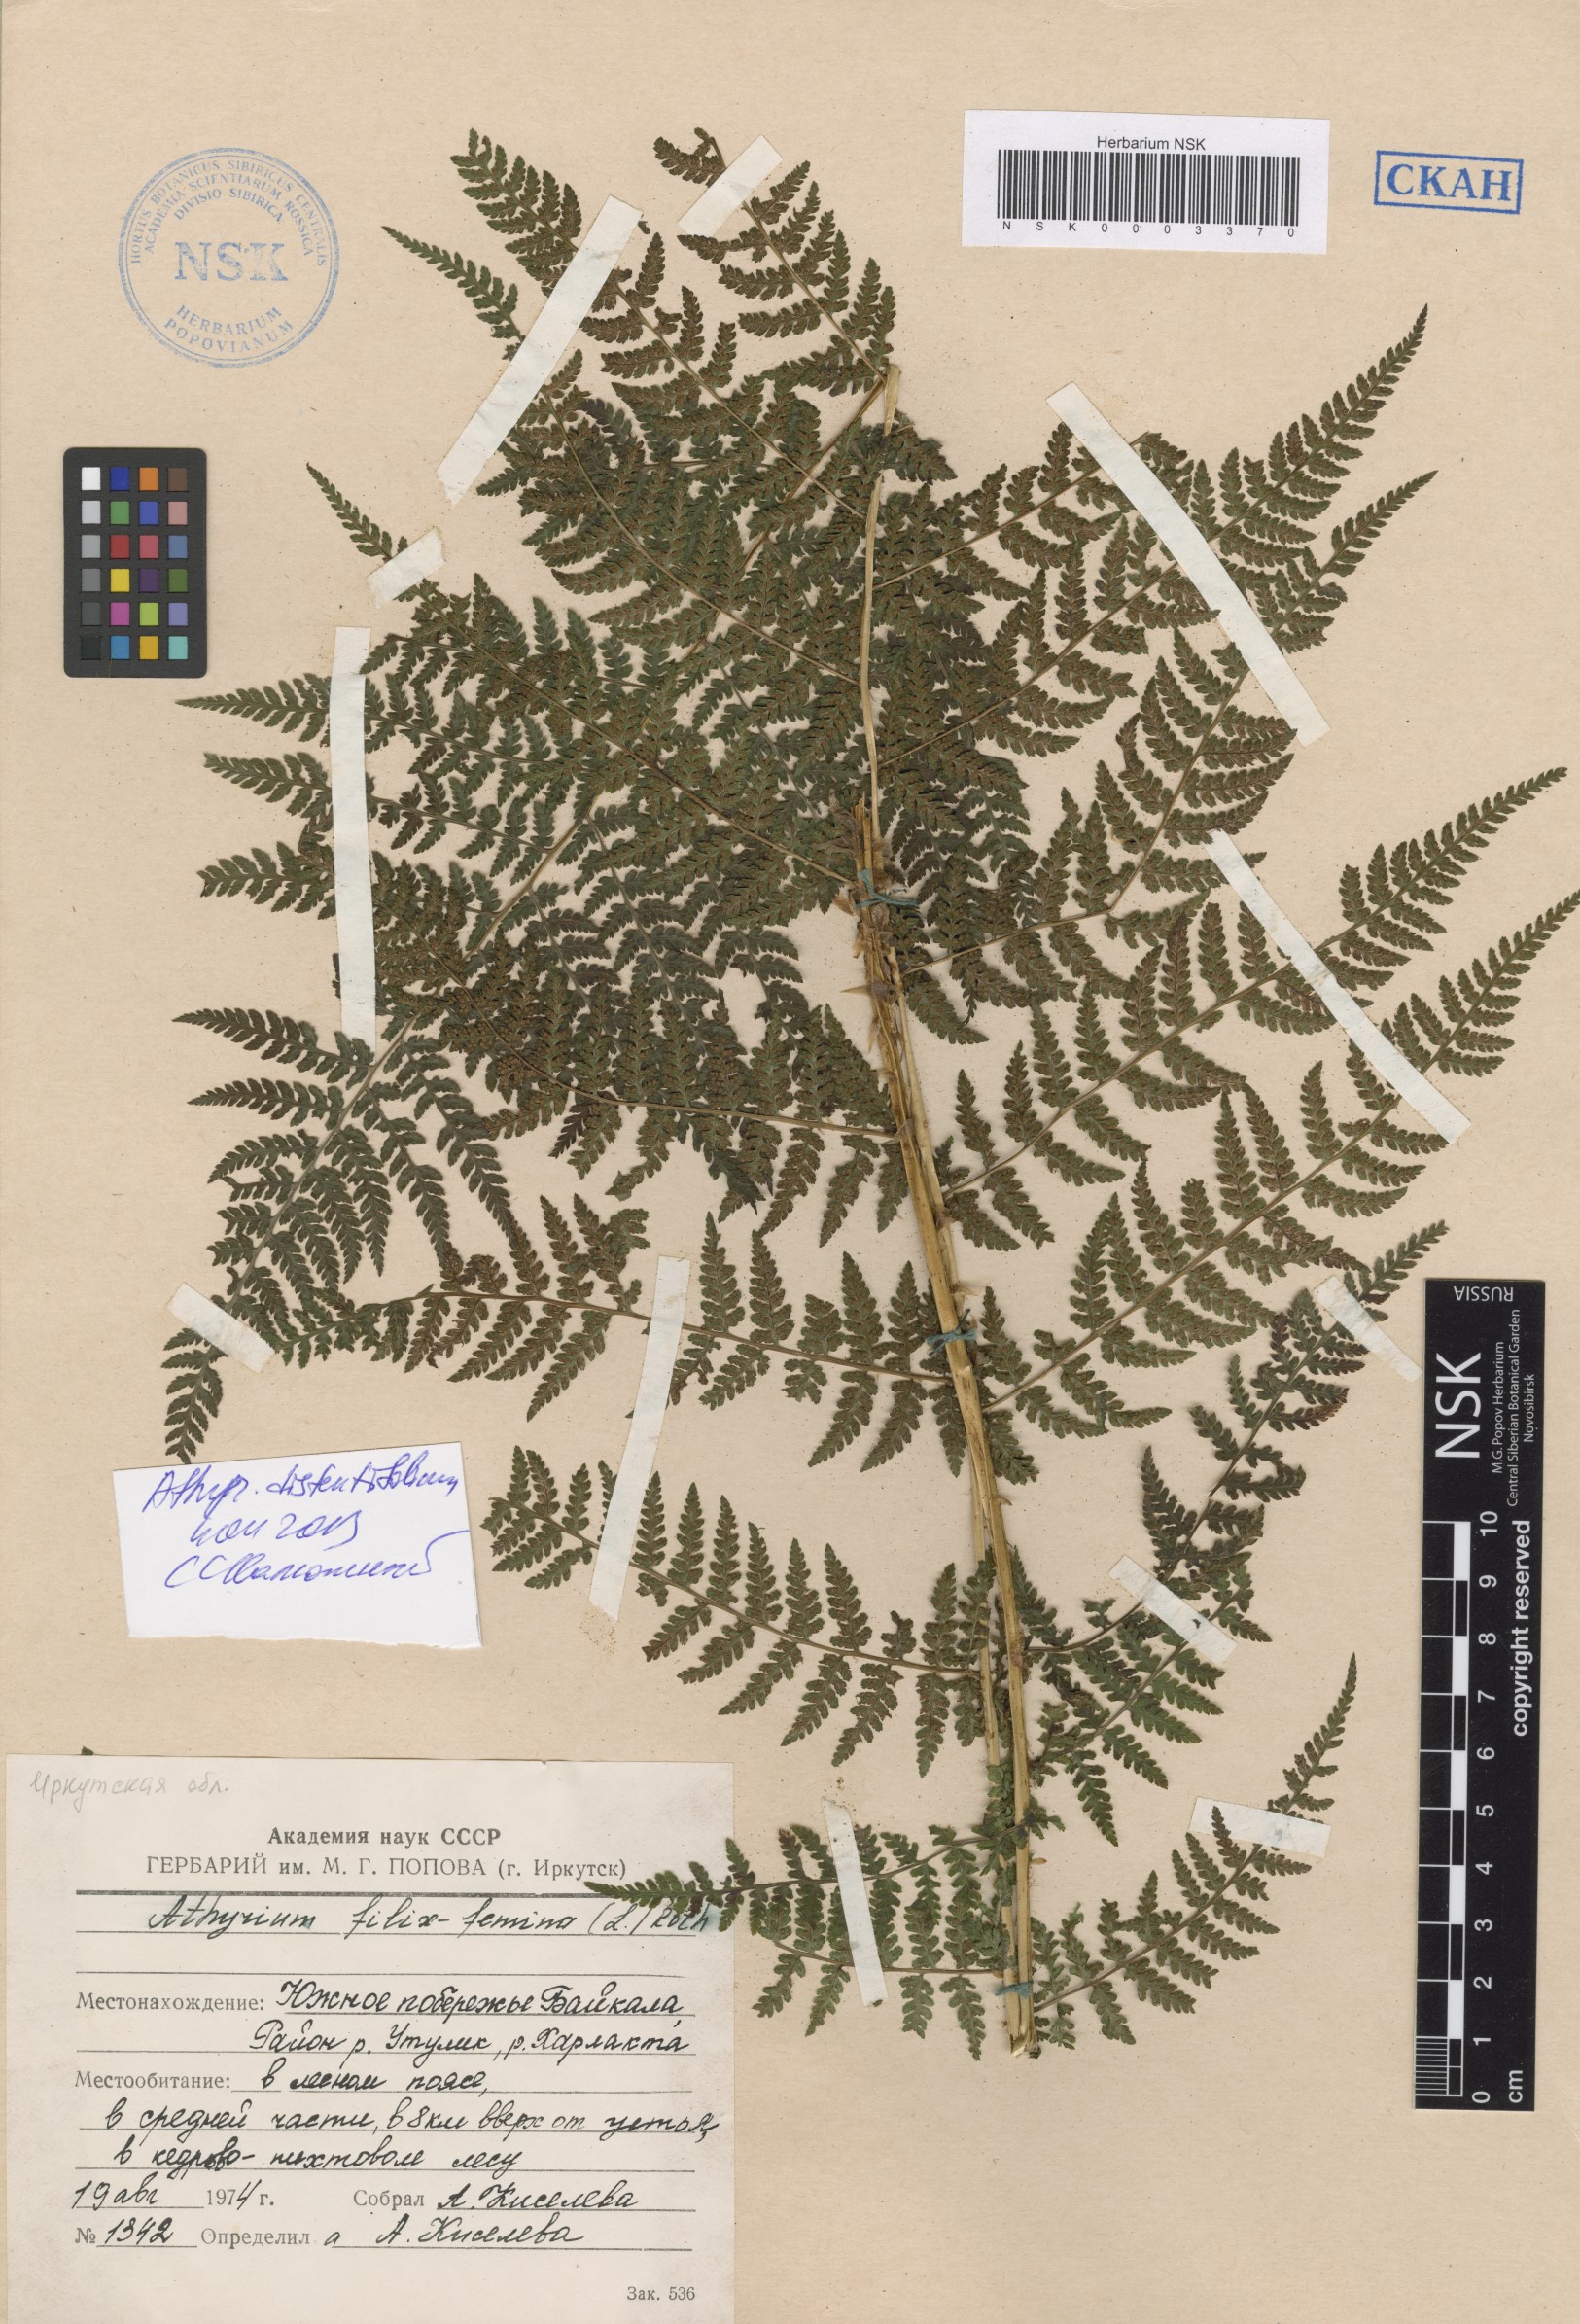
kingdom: Plantae
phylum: Tracheophyta
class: Polypodiopsida
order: Polypodiales
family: Athyriaceae
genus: Pseudathyrium
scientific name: Pseudathyrium alpestre
